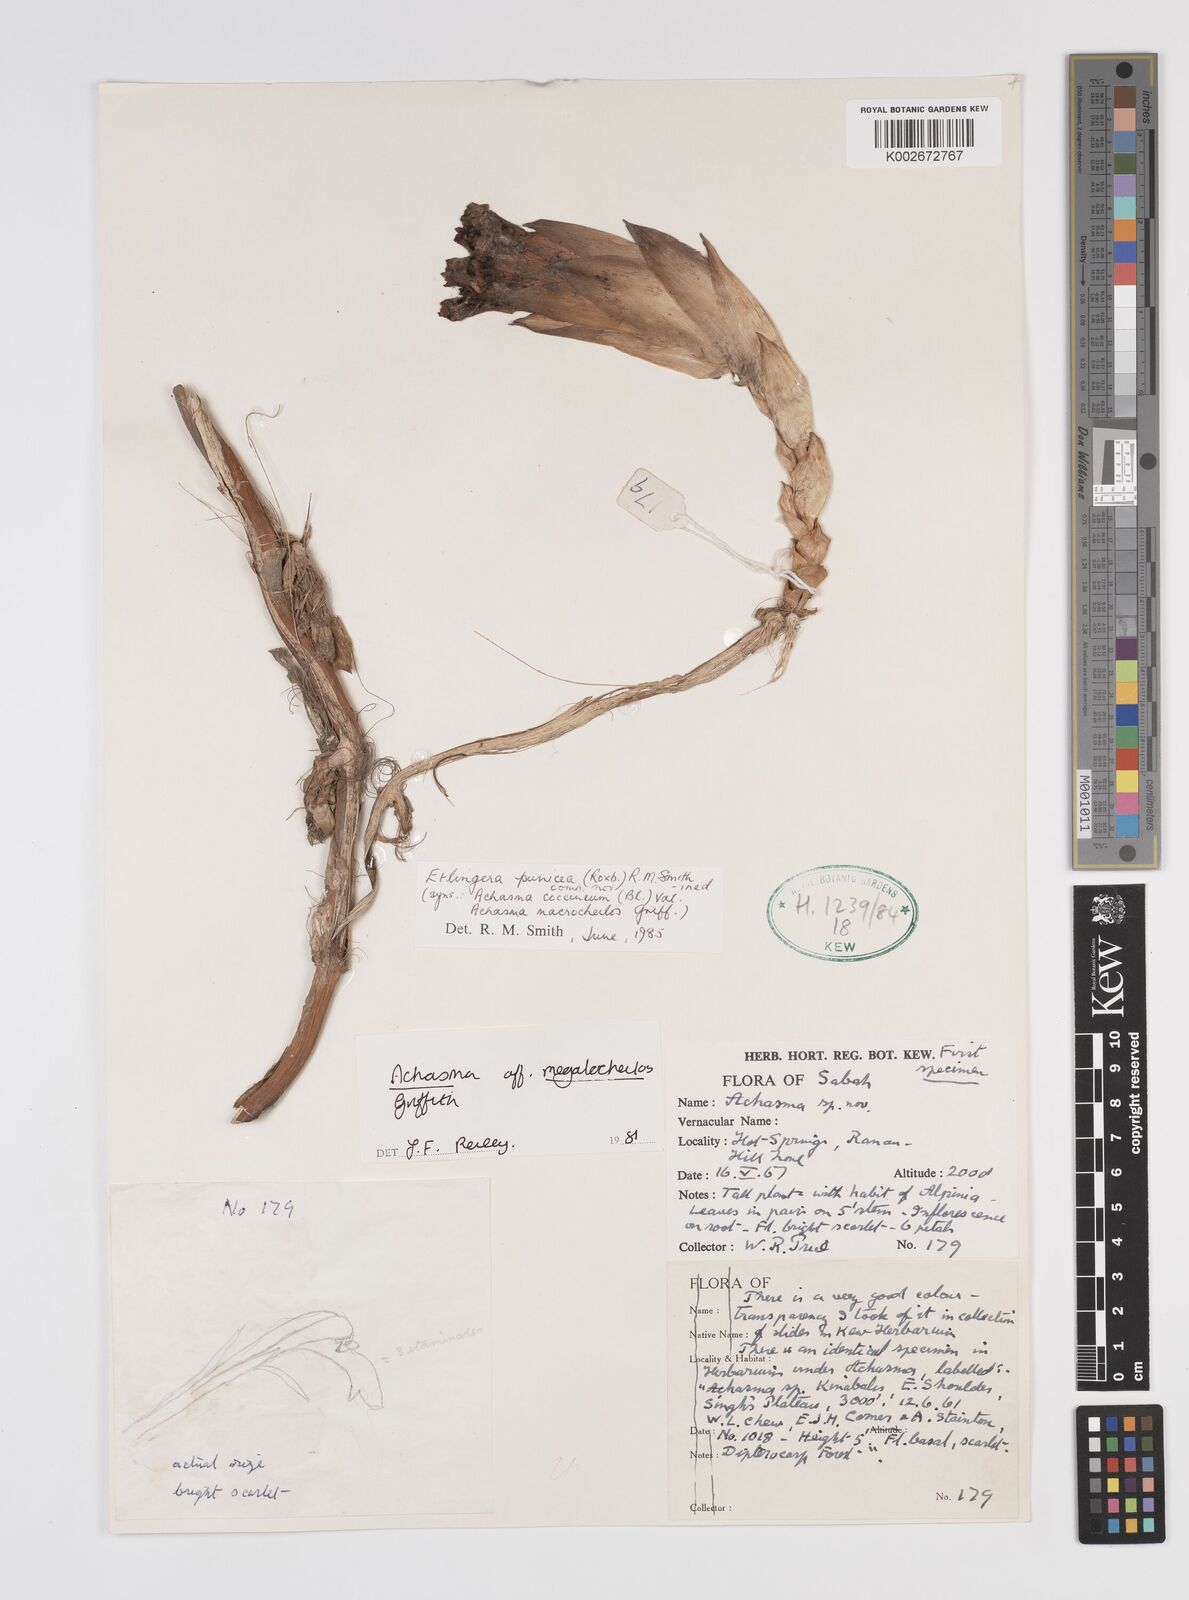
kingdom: Plantae
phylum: Tracheophyta
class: Liliopsida
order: Zingiberales
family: Zingiberaceae
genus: Etlingera
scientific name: Etlingera punicea
